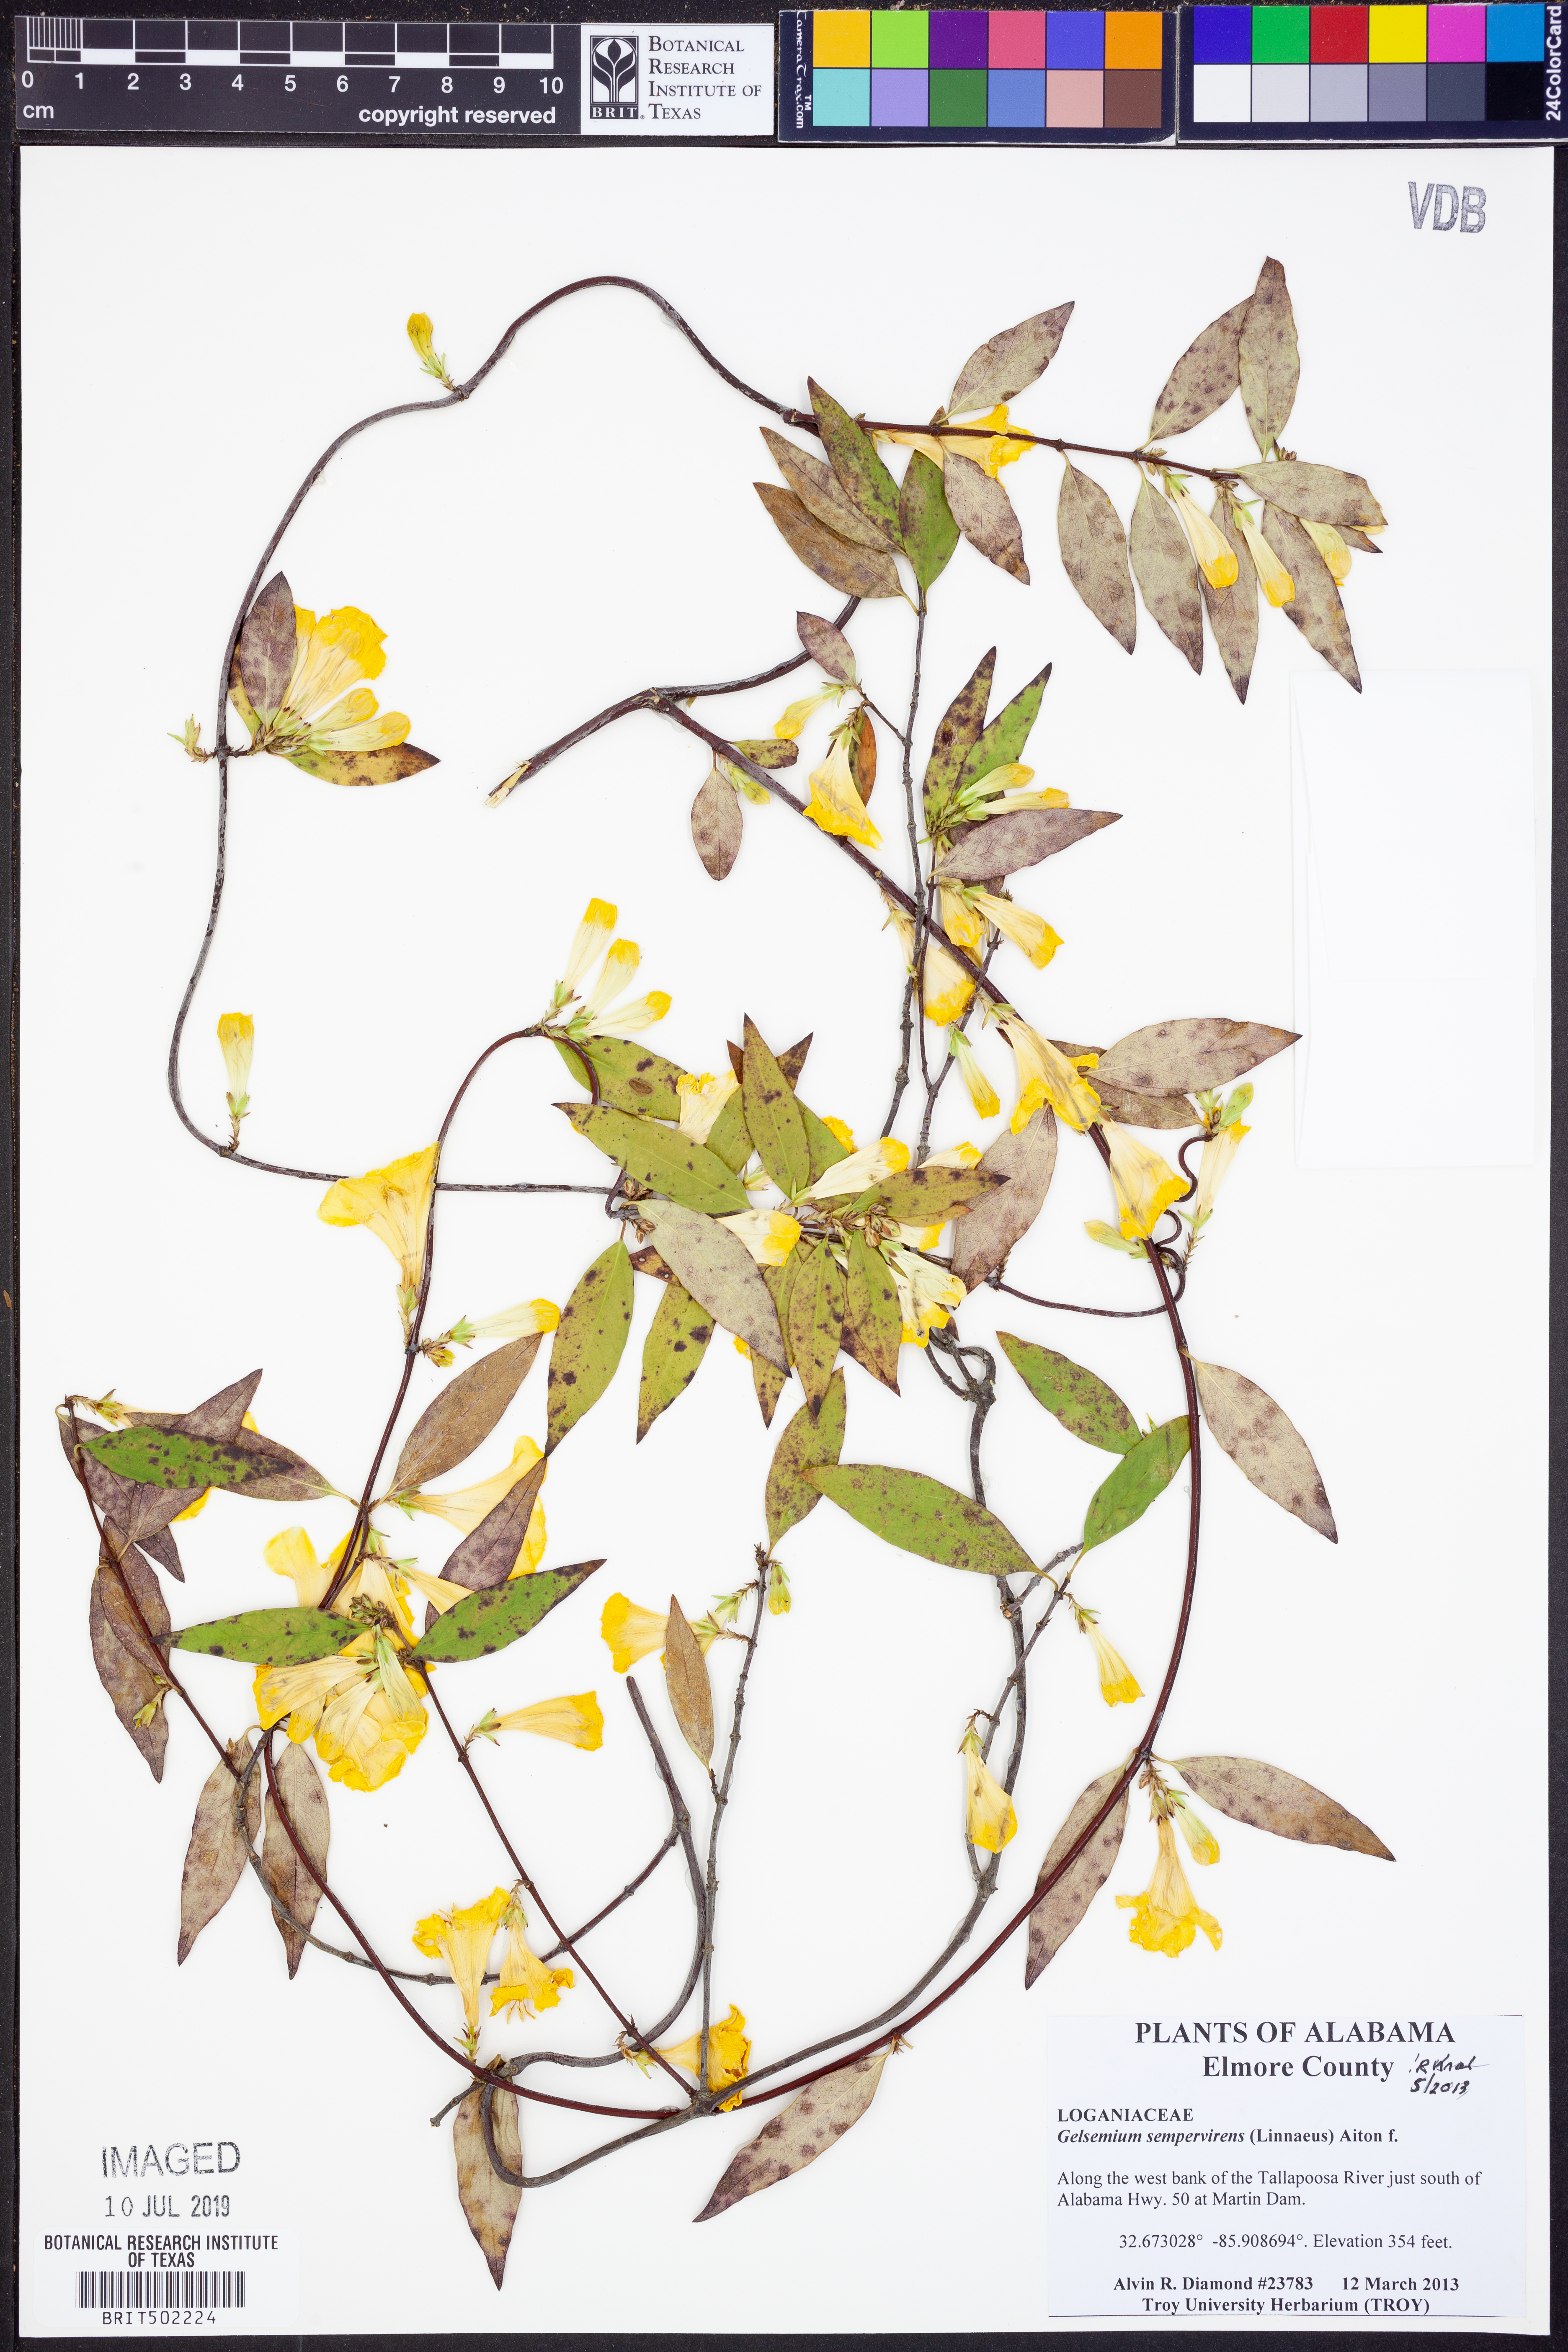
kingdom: Plantae
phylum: Tracheophyta
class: Magnoliopsida
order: Gentianales
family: Gelsemiaceae
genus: Gelsemium
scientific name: Gelsemium sempervirens
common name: Carolina-jasmine
